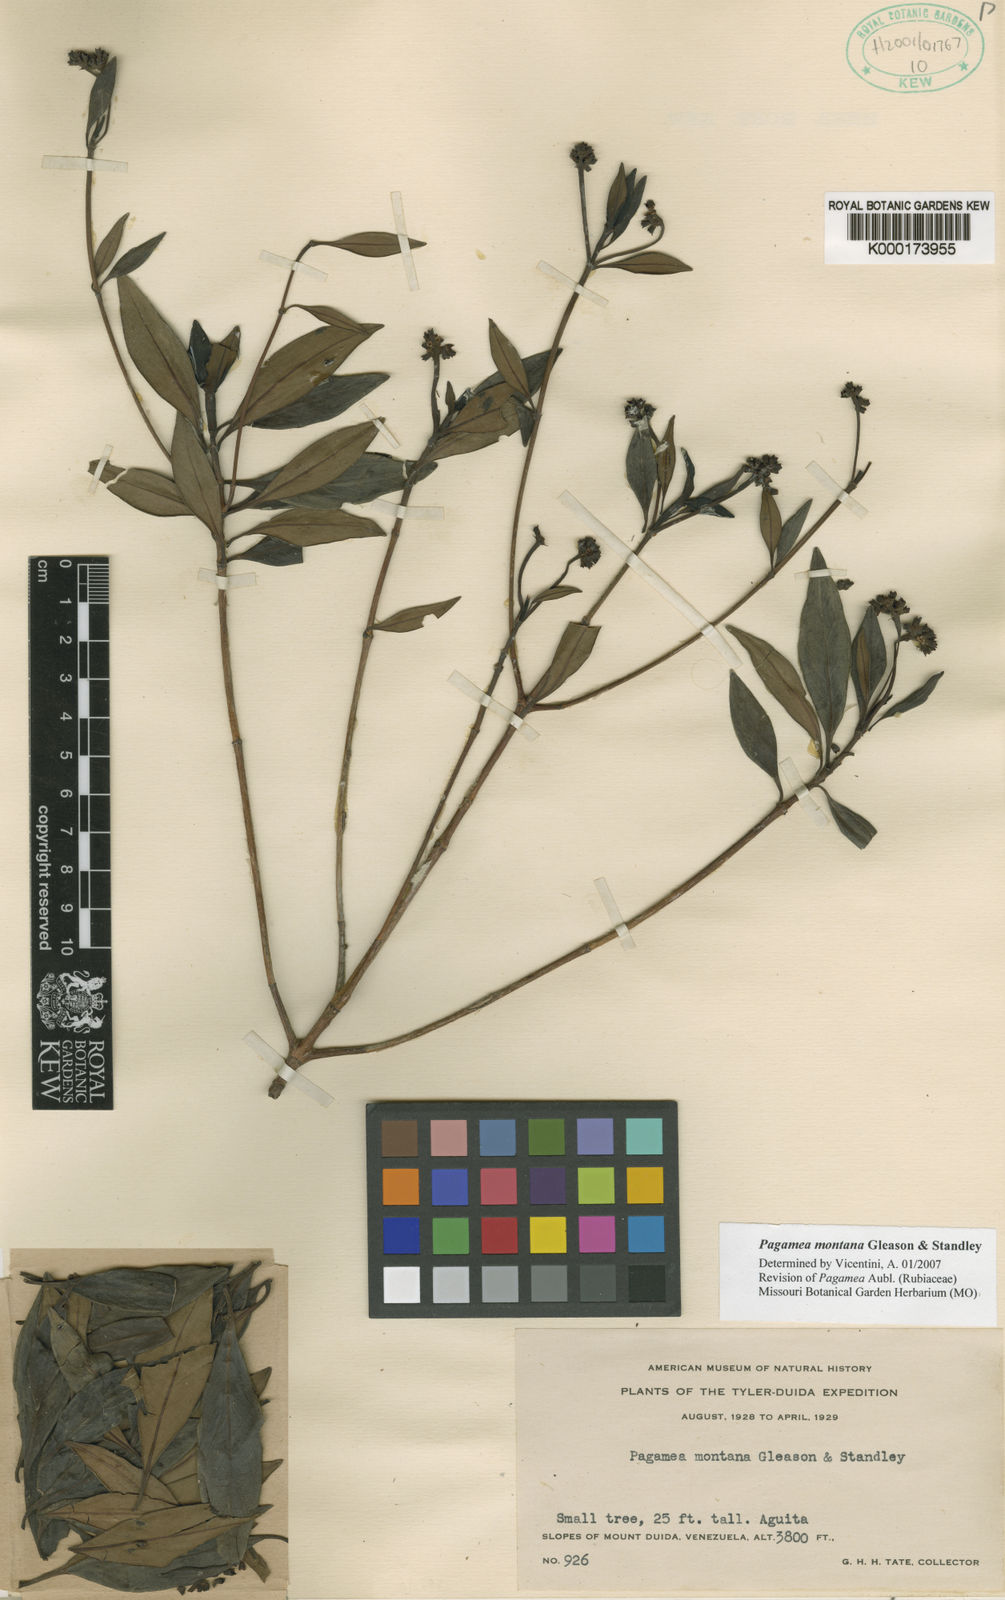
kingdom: Plantae
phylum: Tracheophyta
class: Magnoliopsida
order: Gentianales
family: Rubiaceae
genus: Pagamea
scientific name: Pagamea montana
